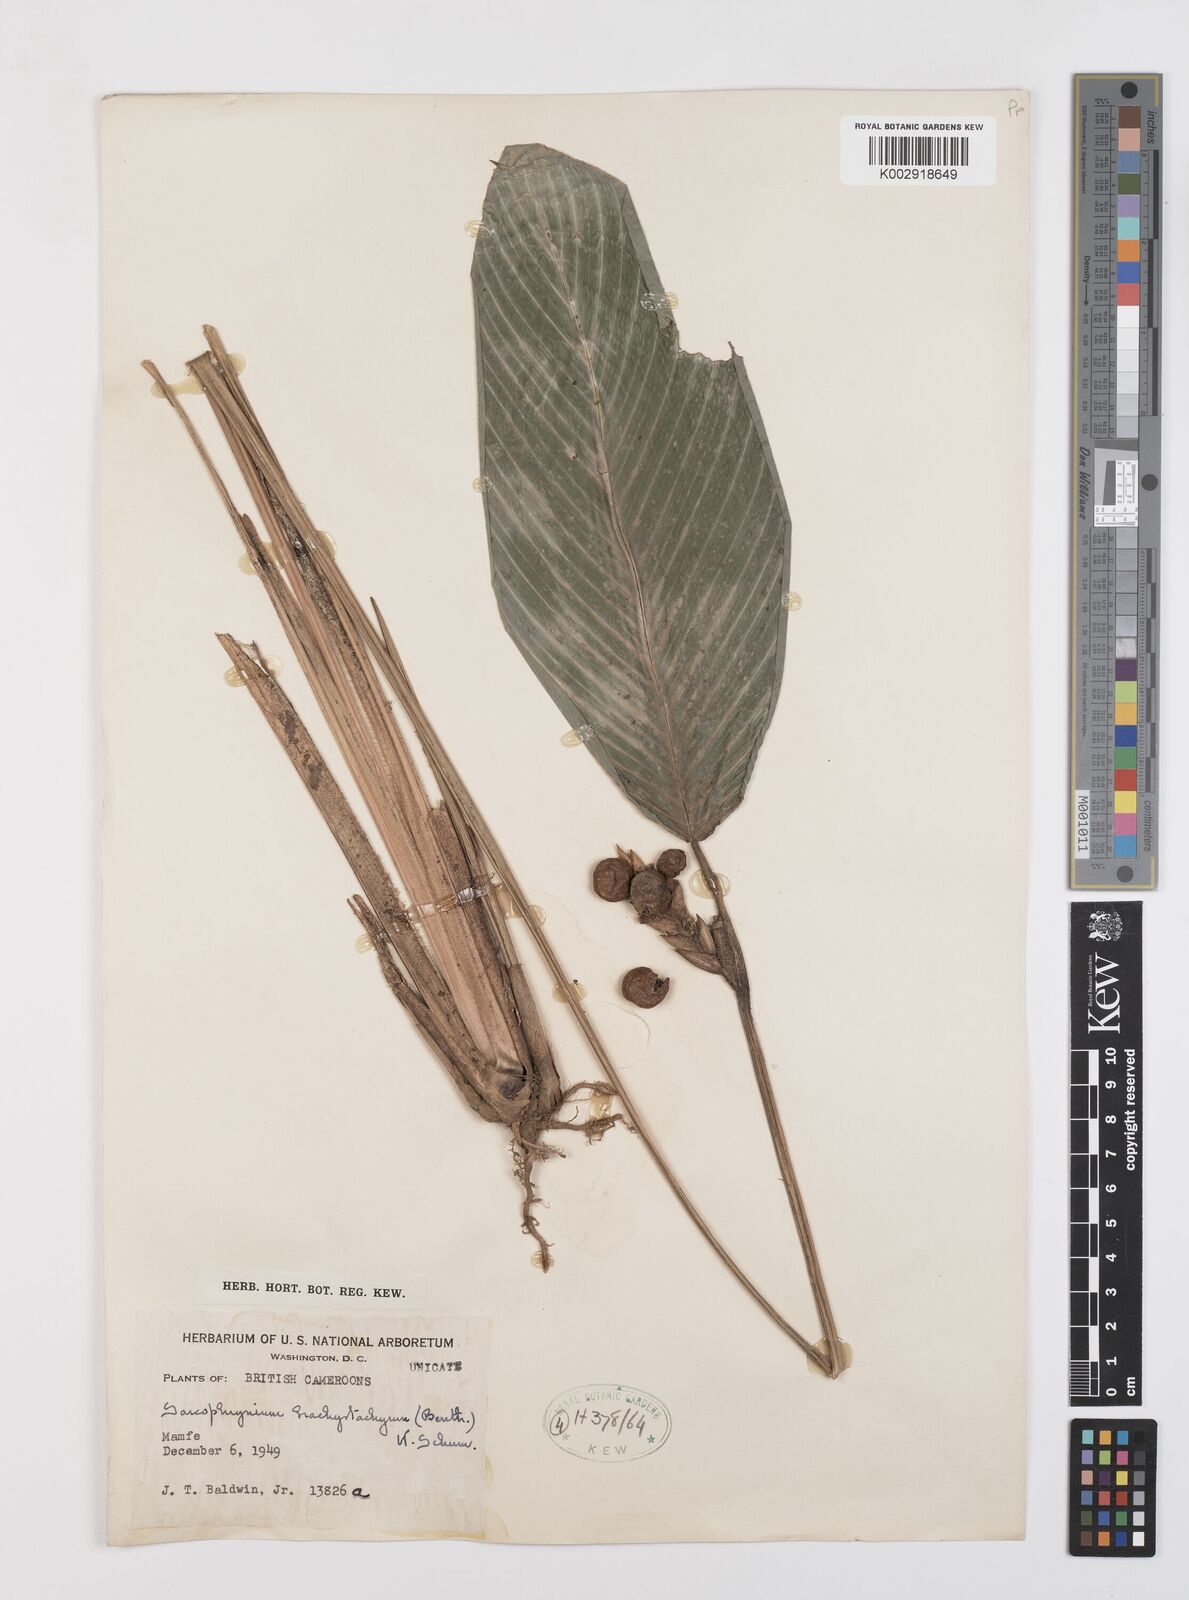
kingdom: Plantae
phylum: Tracheophyta
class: Liliopsida
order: Zingiberales
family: Marantaceae
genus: Sarcophrynium
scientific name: Sarcophrynium brachystachyum
